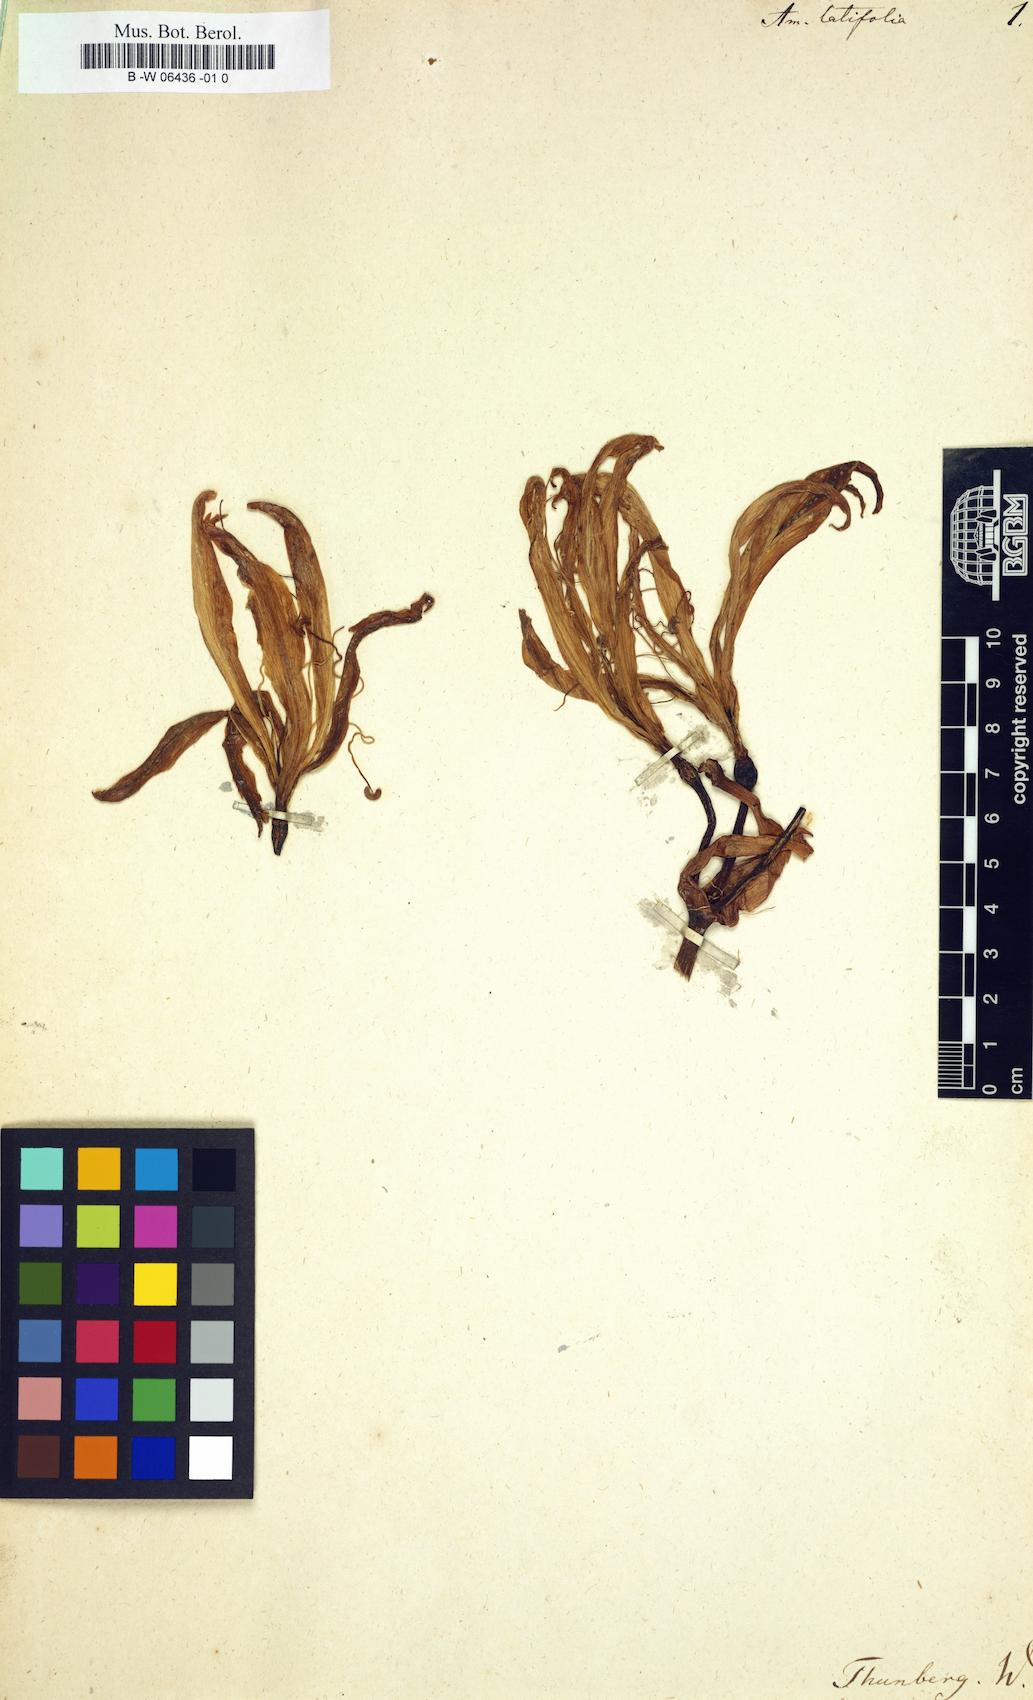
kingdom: Plantae
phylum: Tracheophyta
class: Liliopsida
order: Asparagales
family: Amaryllidaceae
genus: Crinum
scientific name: Crinum
